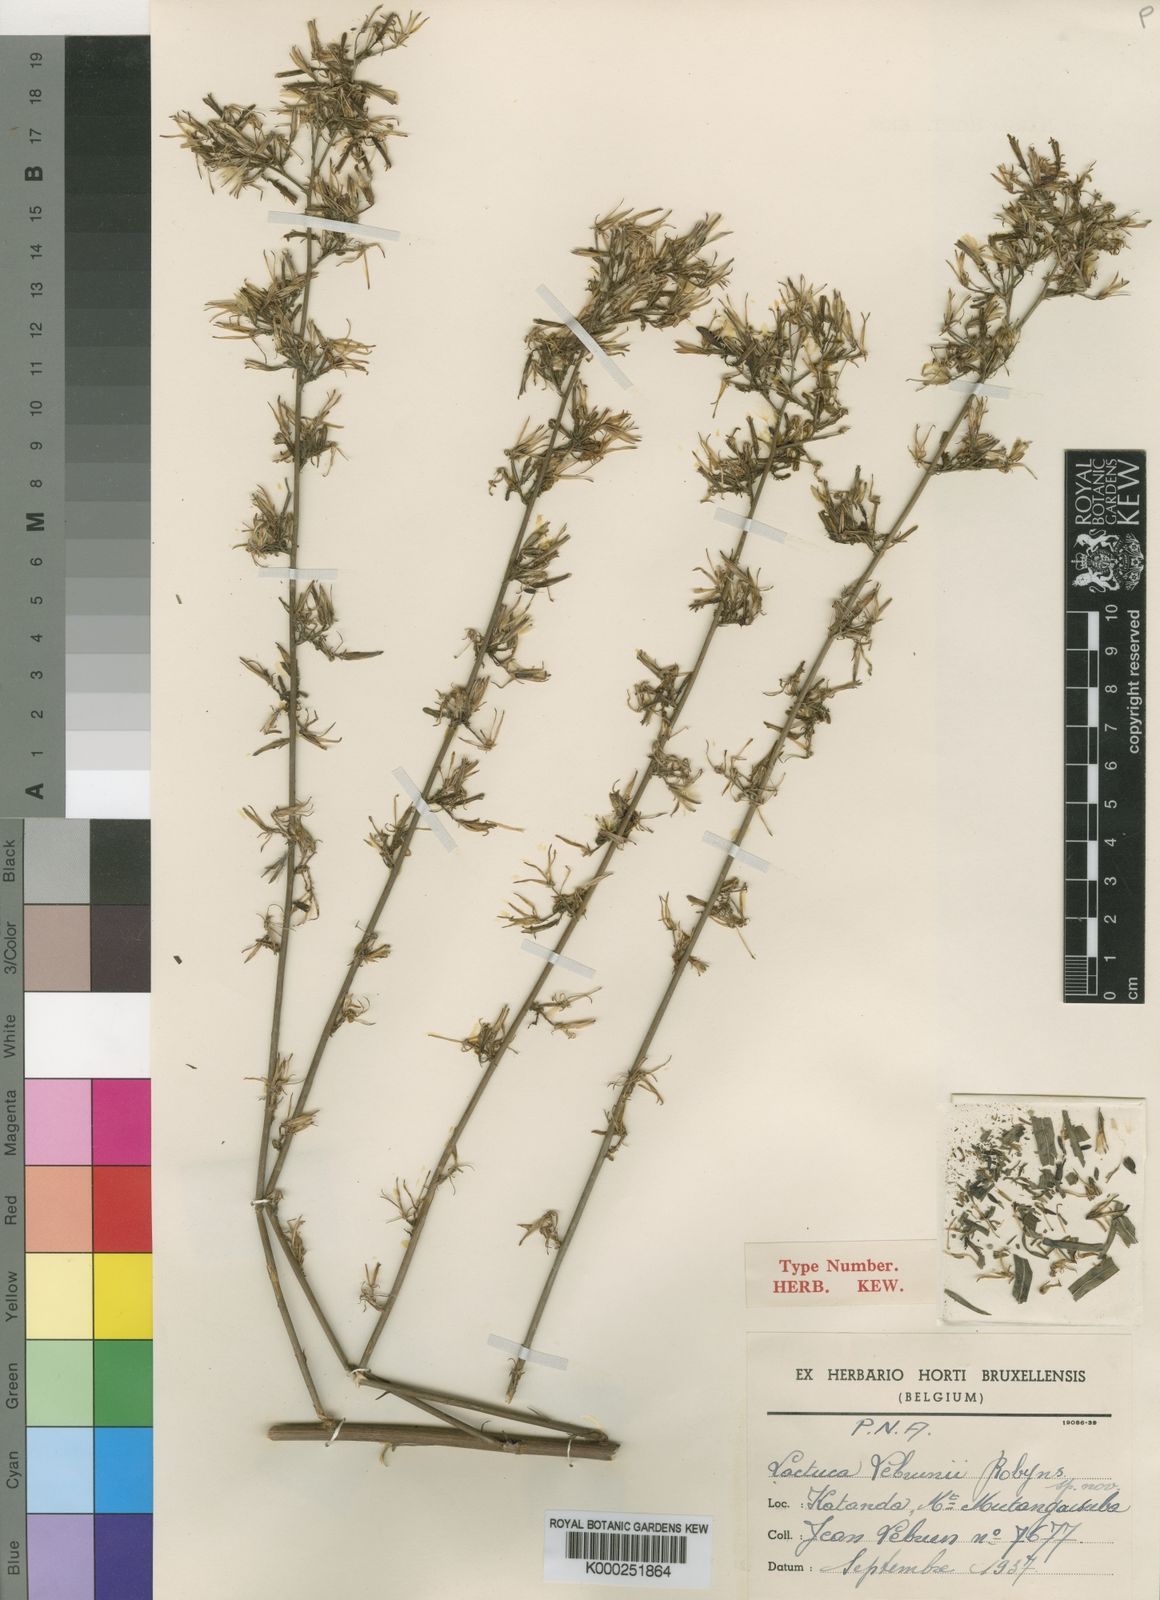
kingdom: Plantae
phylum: Tracheophyta
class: Magnoliopsida
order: Asterales
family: Asteraceae
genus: Lactuca
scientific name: Lactuca inermis
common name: Wild lettuce
